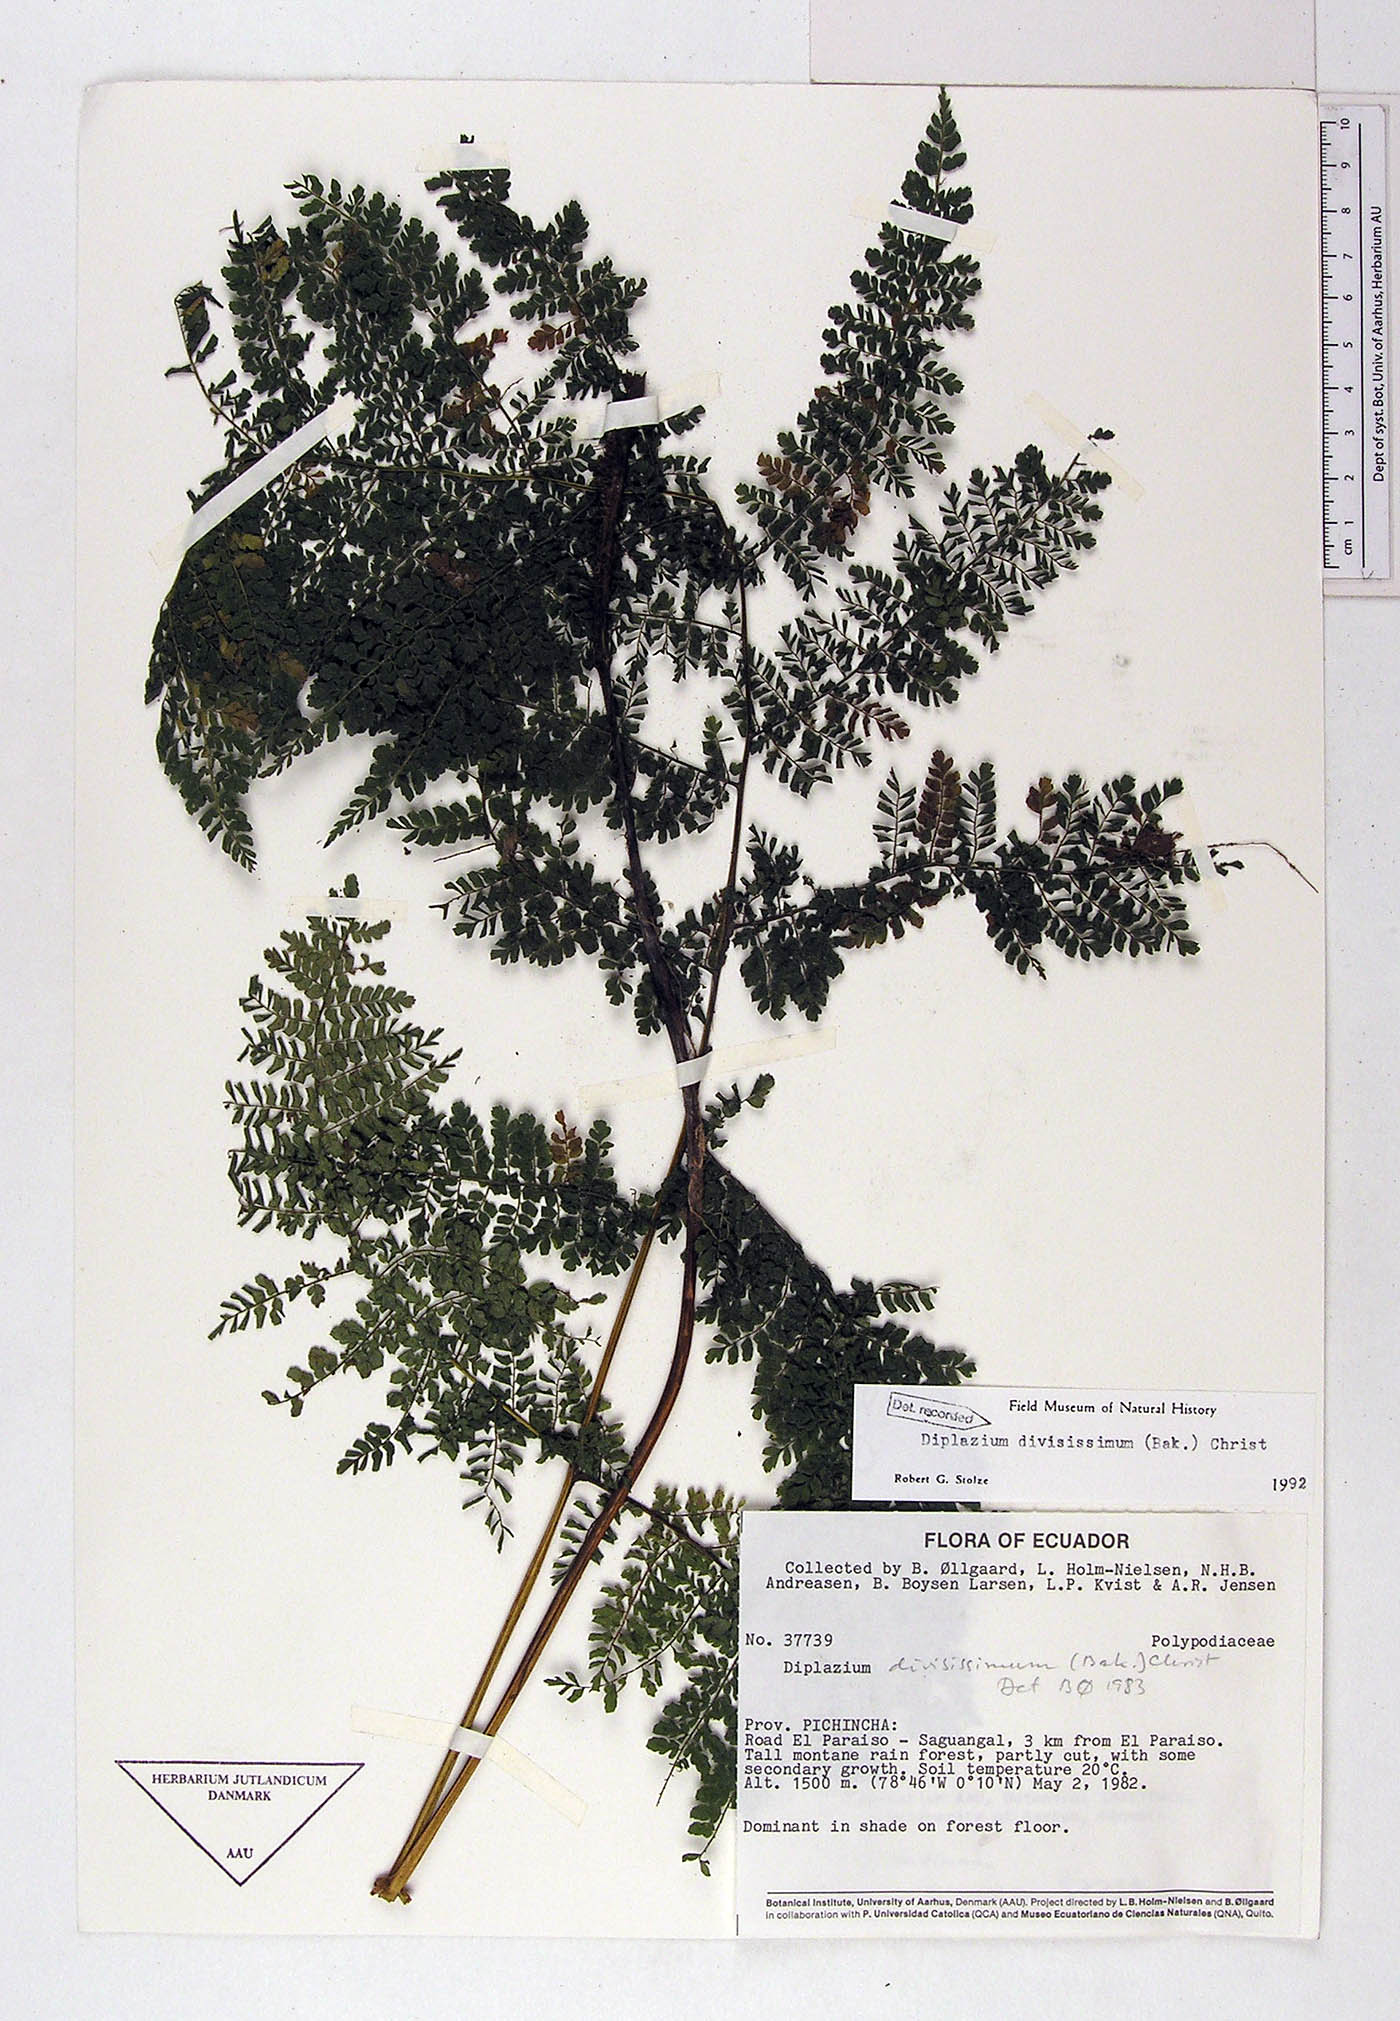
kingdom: Plantae
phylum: Tracheophyta
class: Polypodiopsida
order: Polypodiales
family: Athyriaceae
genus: Diplazium
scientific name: Diplazium divisissimum
